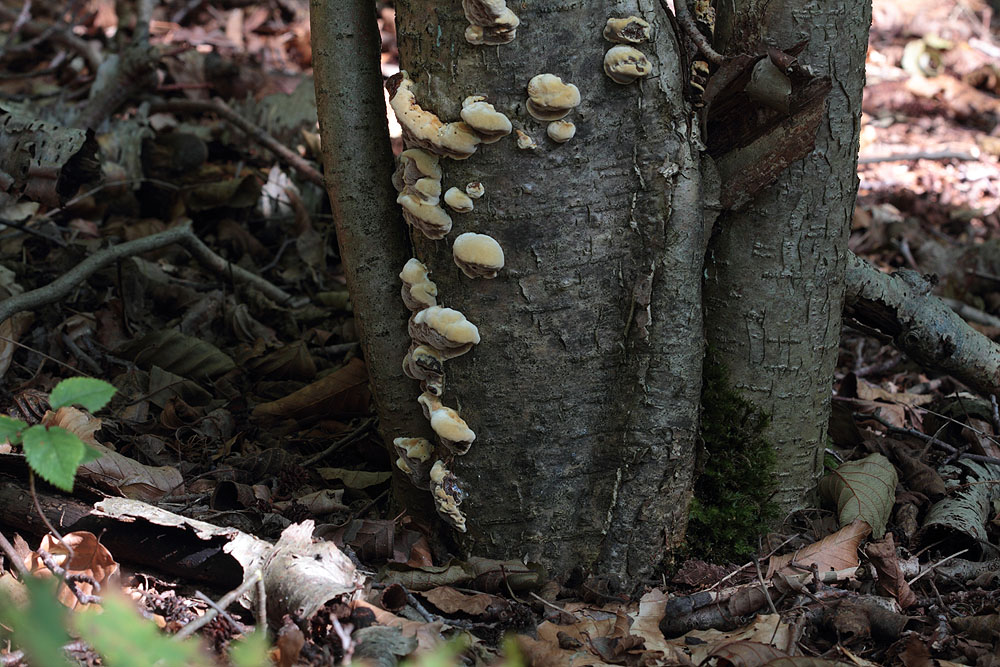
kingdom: Fungi
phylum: Basidiomycota
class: Agaricomycetes
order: Hymenochaetales
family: Hymenochaetaceae
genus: Xanthoporia
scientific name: Xanthoporia radiata
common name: elle-spejlporesvamp
